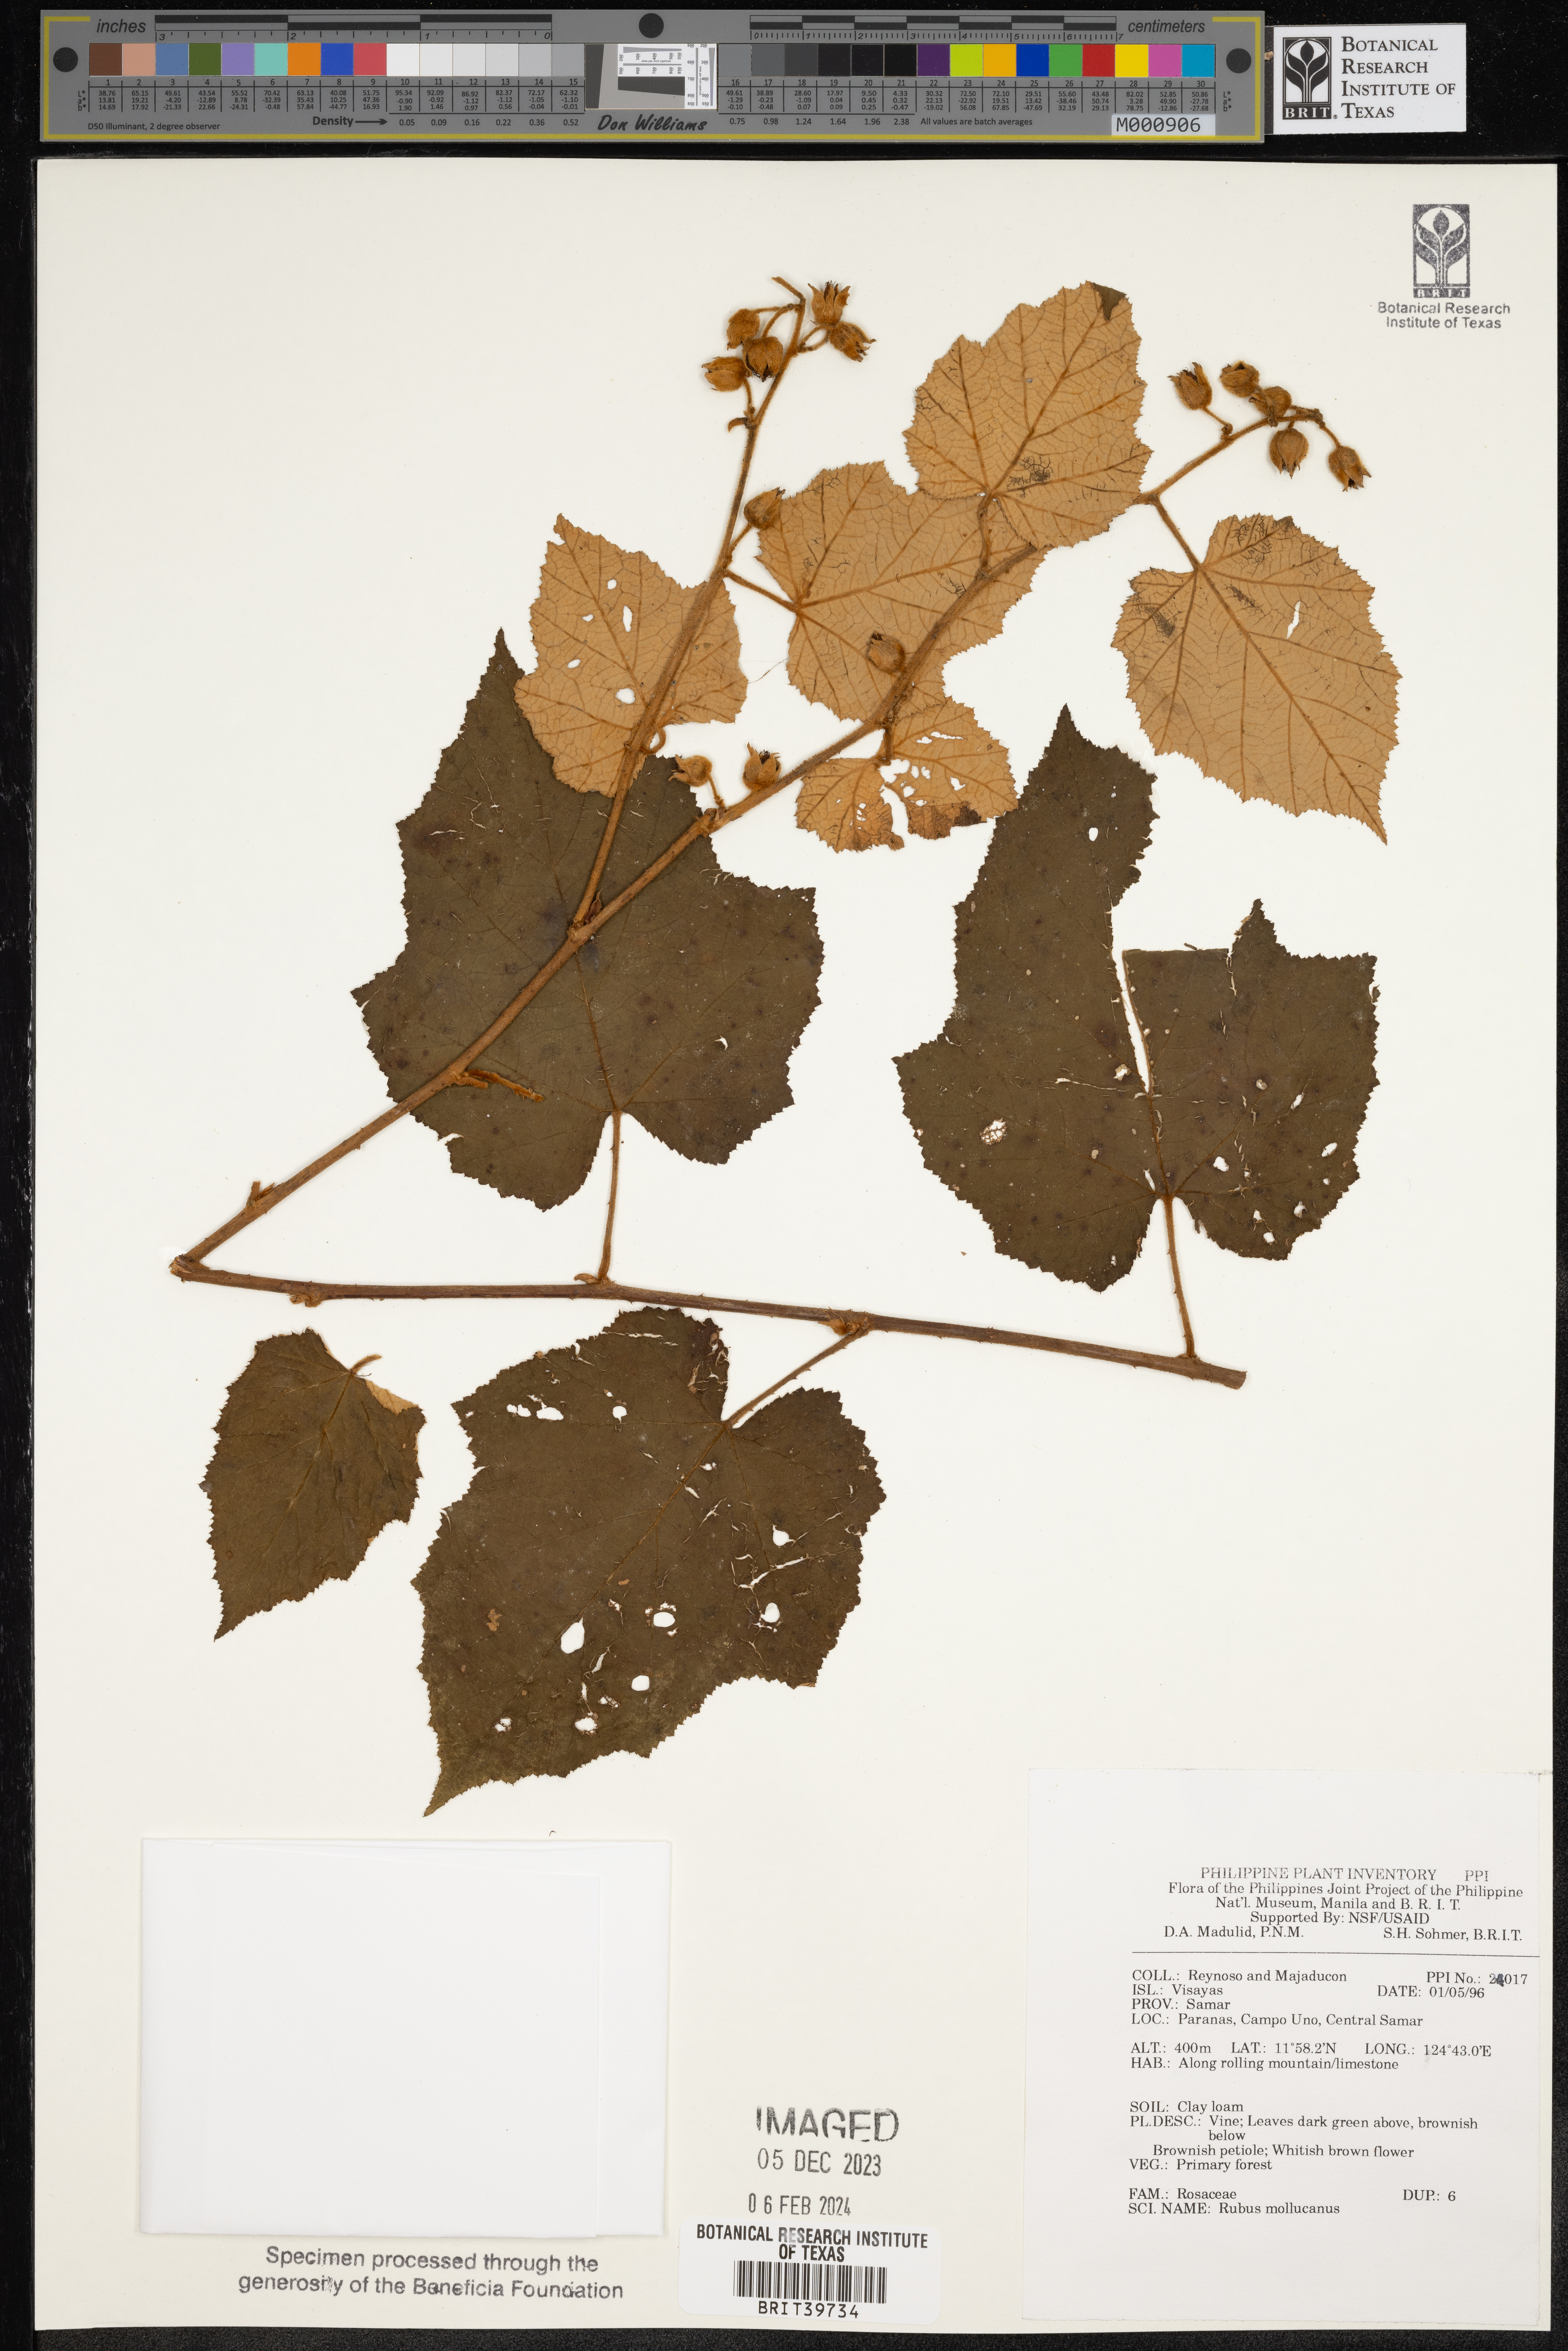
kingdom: Plantae
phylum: Tracheophyta
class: Magnoliopsida
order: Rosales
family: Rosaceae
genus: Rubus
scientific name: Rubus moluccanus
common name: Wild raspberry
